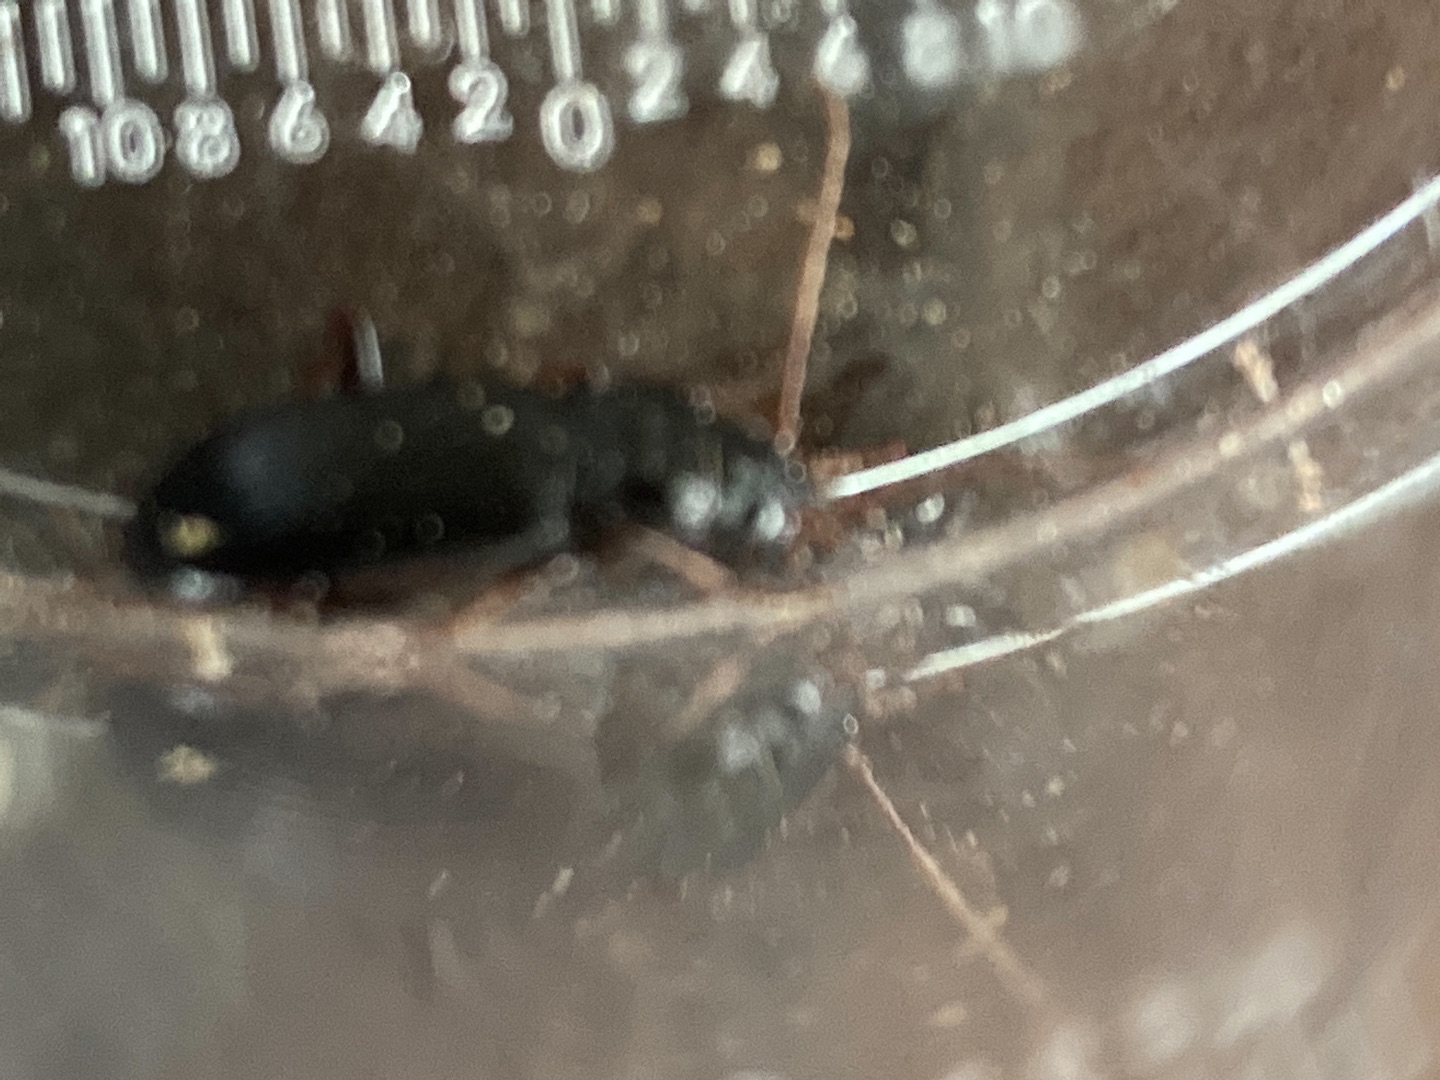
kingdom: Animalia
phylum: Arthropoda
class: Insecta
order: Coleoptera
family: Carabidae
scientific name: Carabidae
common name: Løbebiller
